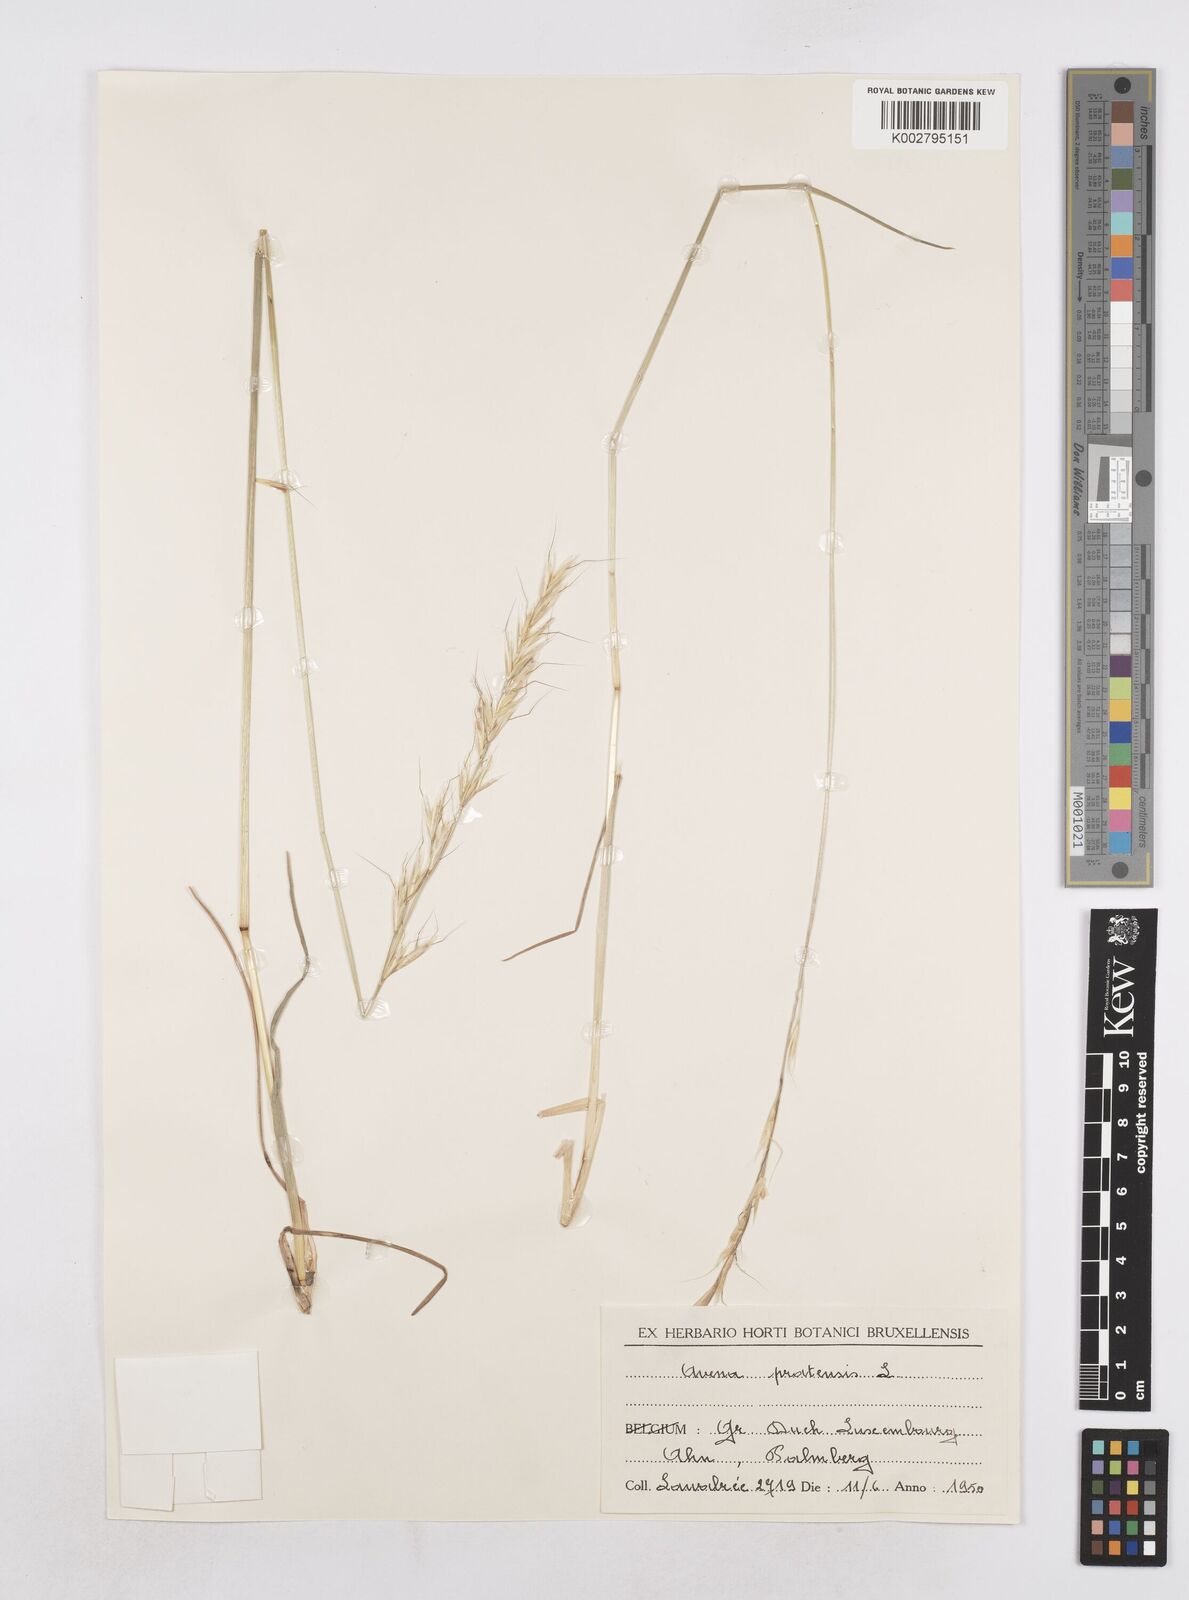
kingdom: Plantae
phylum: Tracheophyta
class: Liliopsida
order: Poales
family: Poaceae
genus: Helictochloa
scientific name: Helictochloa pratensis
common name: Meadow oat grass
